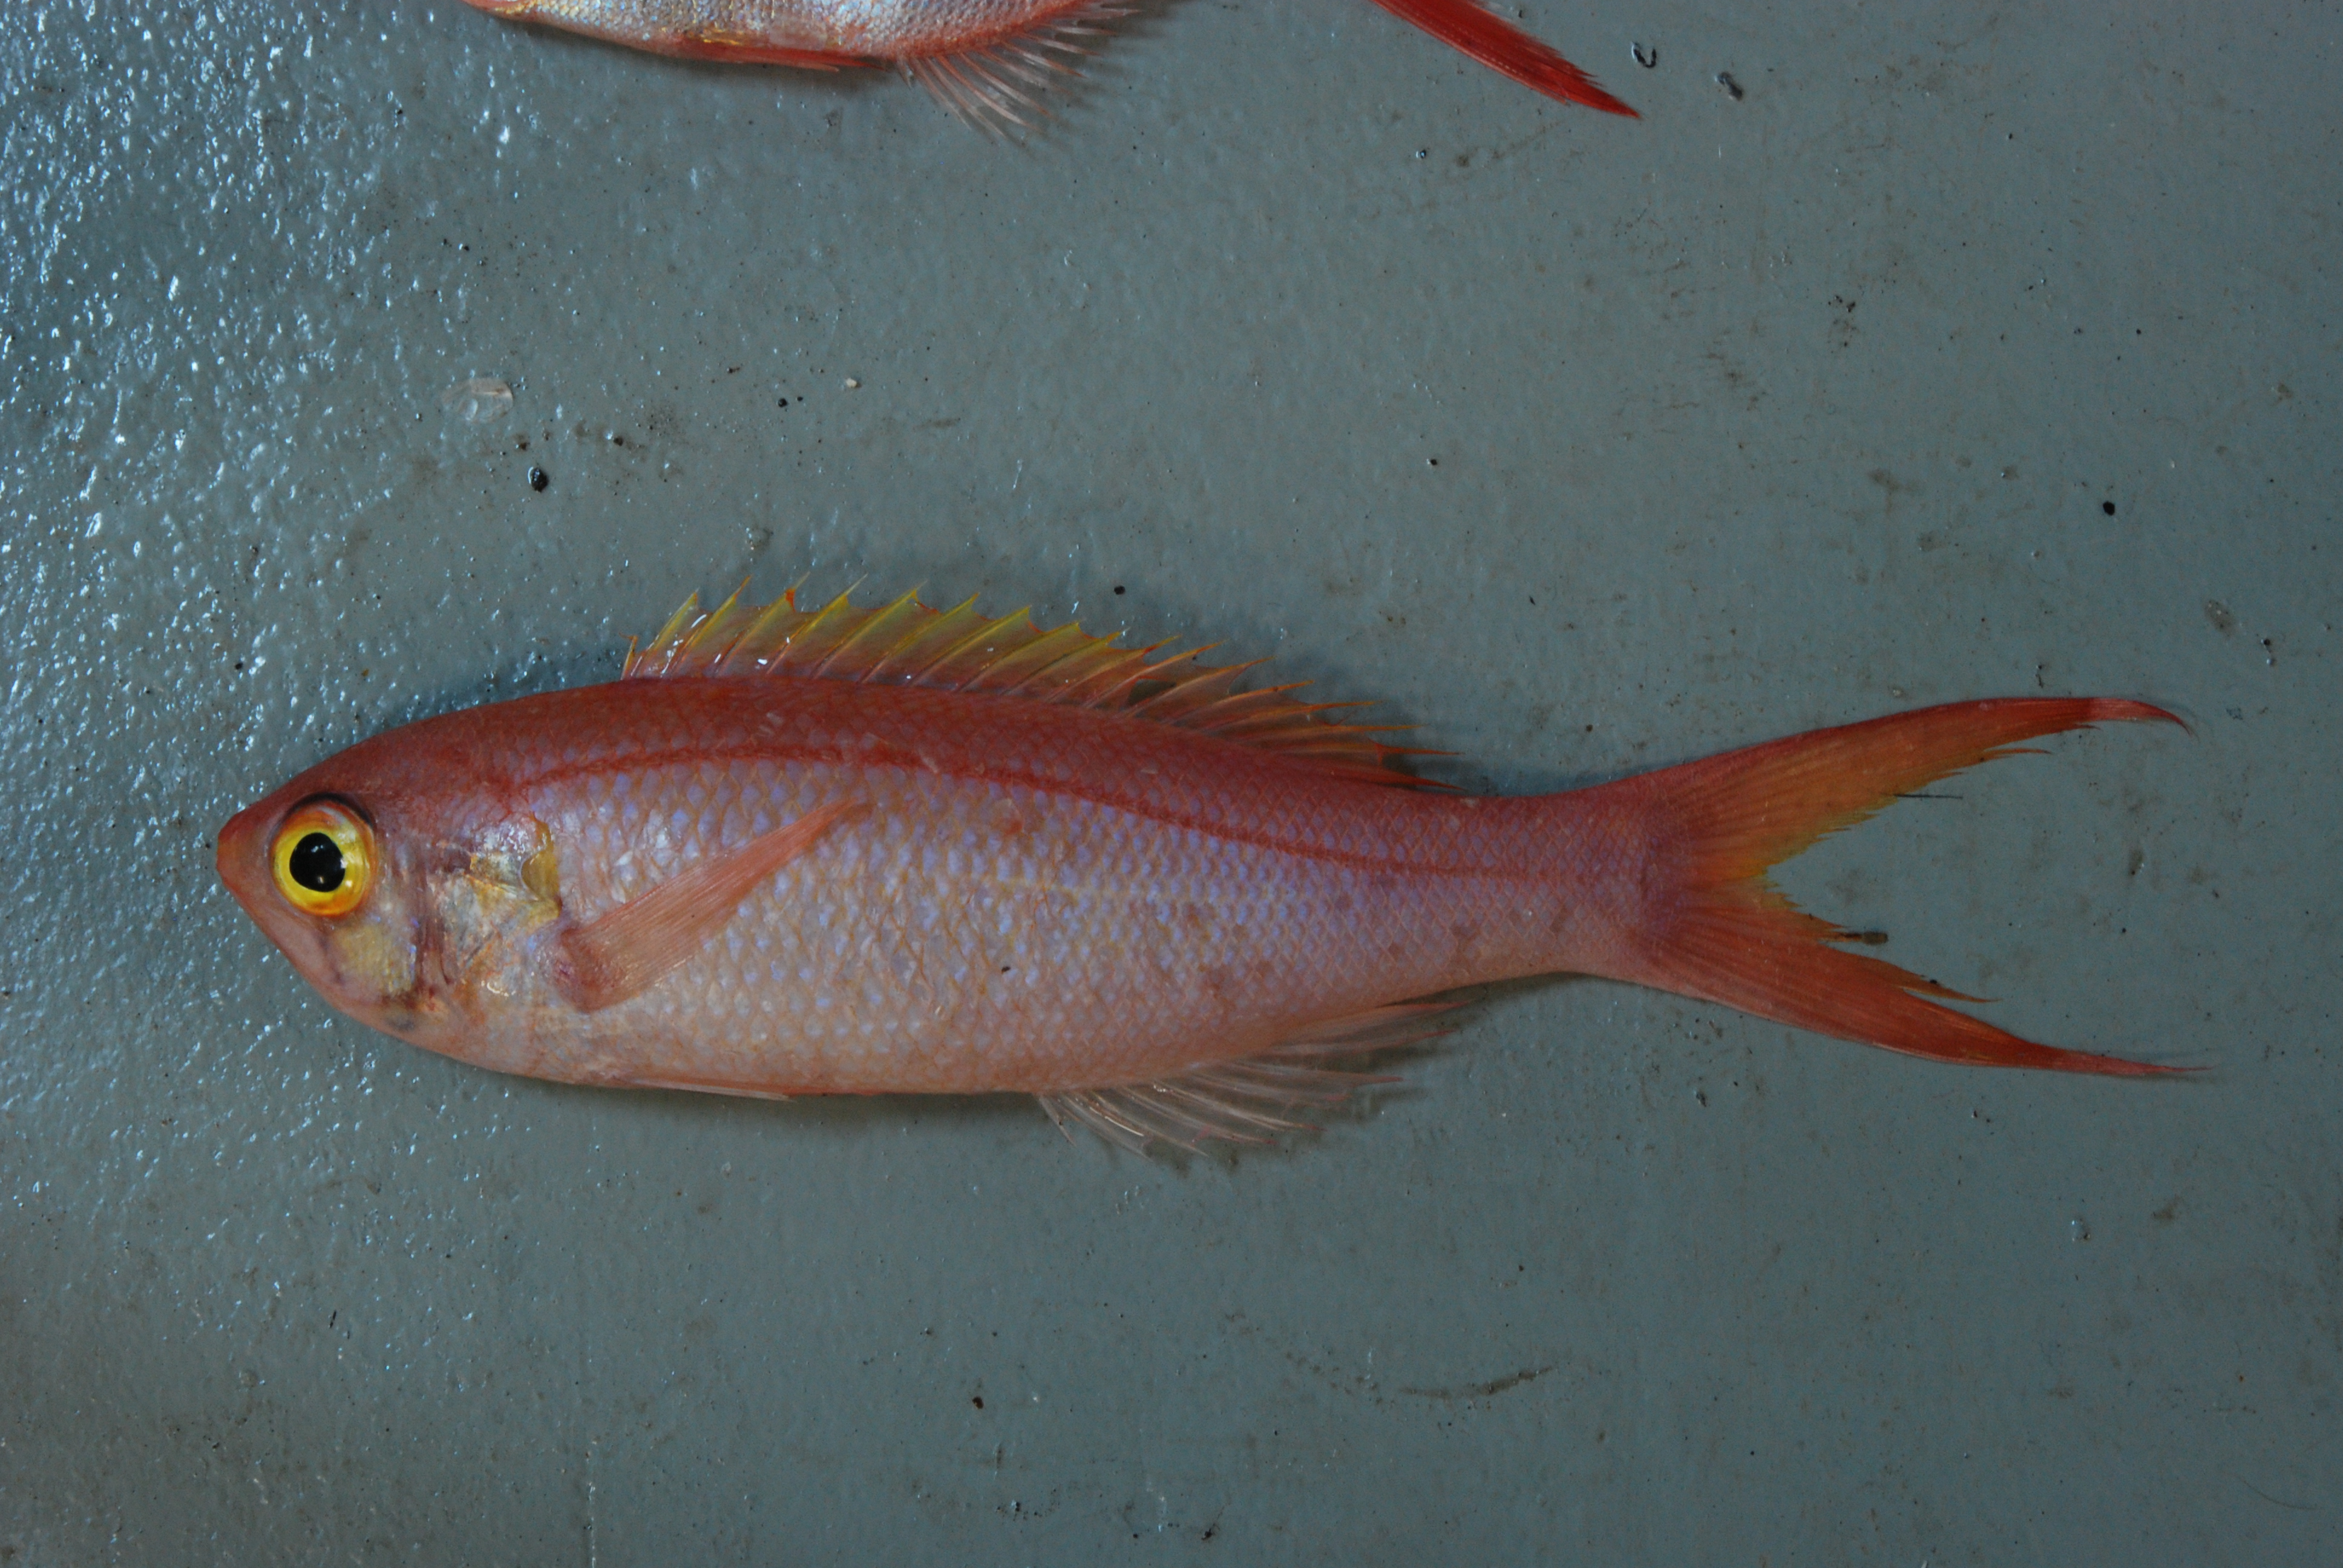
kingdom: Animalia
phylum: Chordata
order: Perciformes
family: Serranidae
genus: Anthias
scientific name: Anthias
